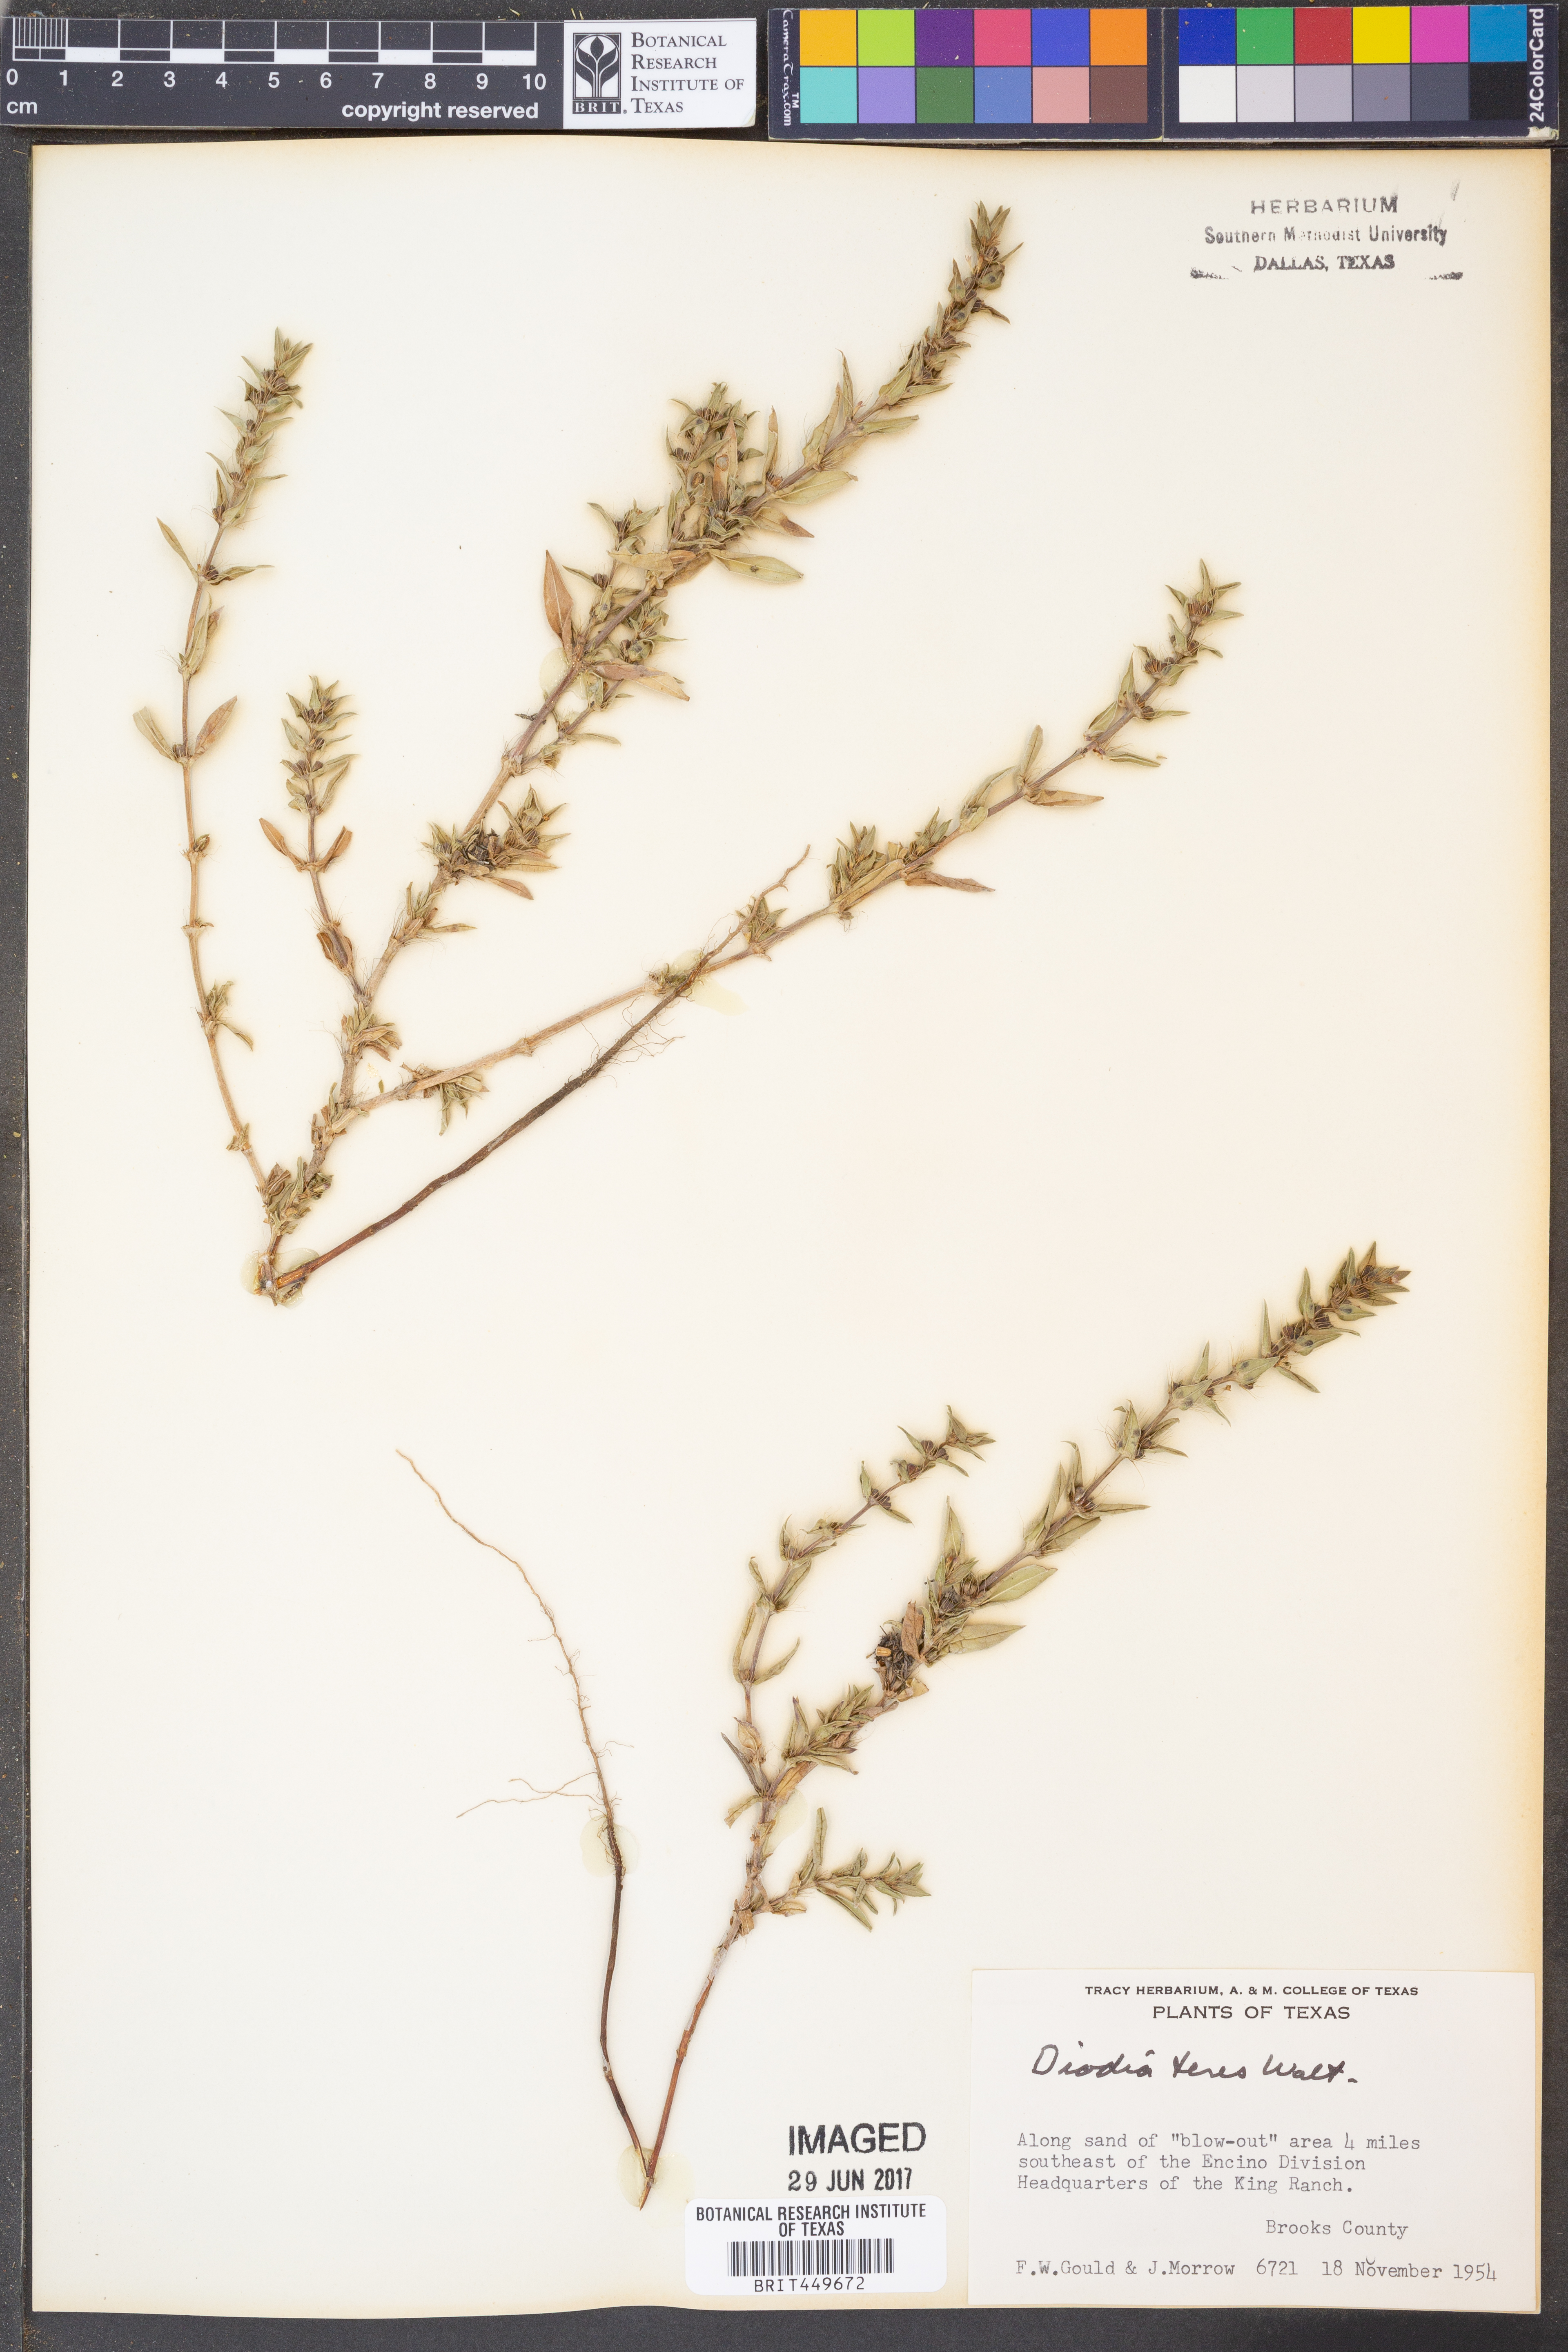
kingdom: Plantae
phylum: Tracheophyta
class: Magnoliopsida
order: Gentianales
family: Rubiaceae
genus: Hexasepalum
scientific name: Hexasepalum teres
